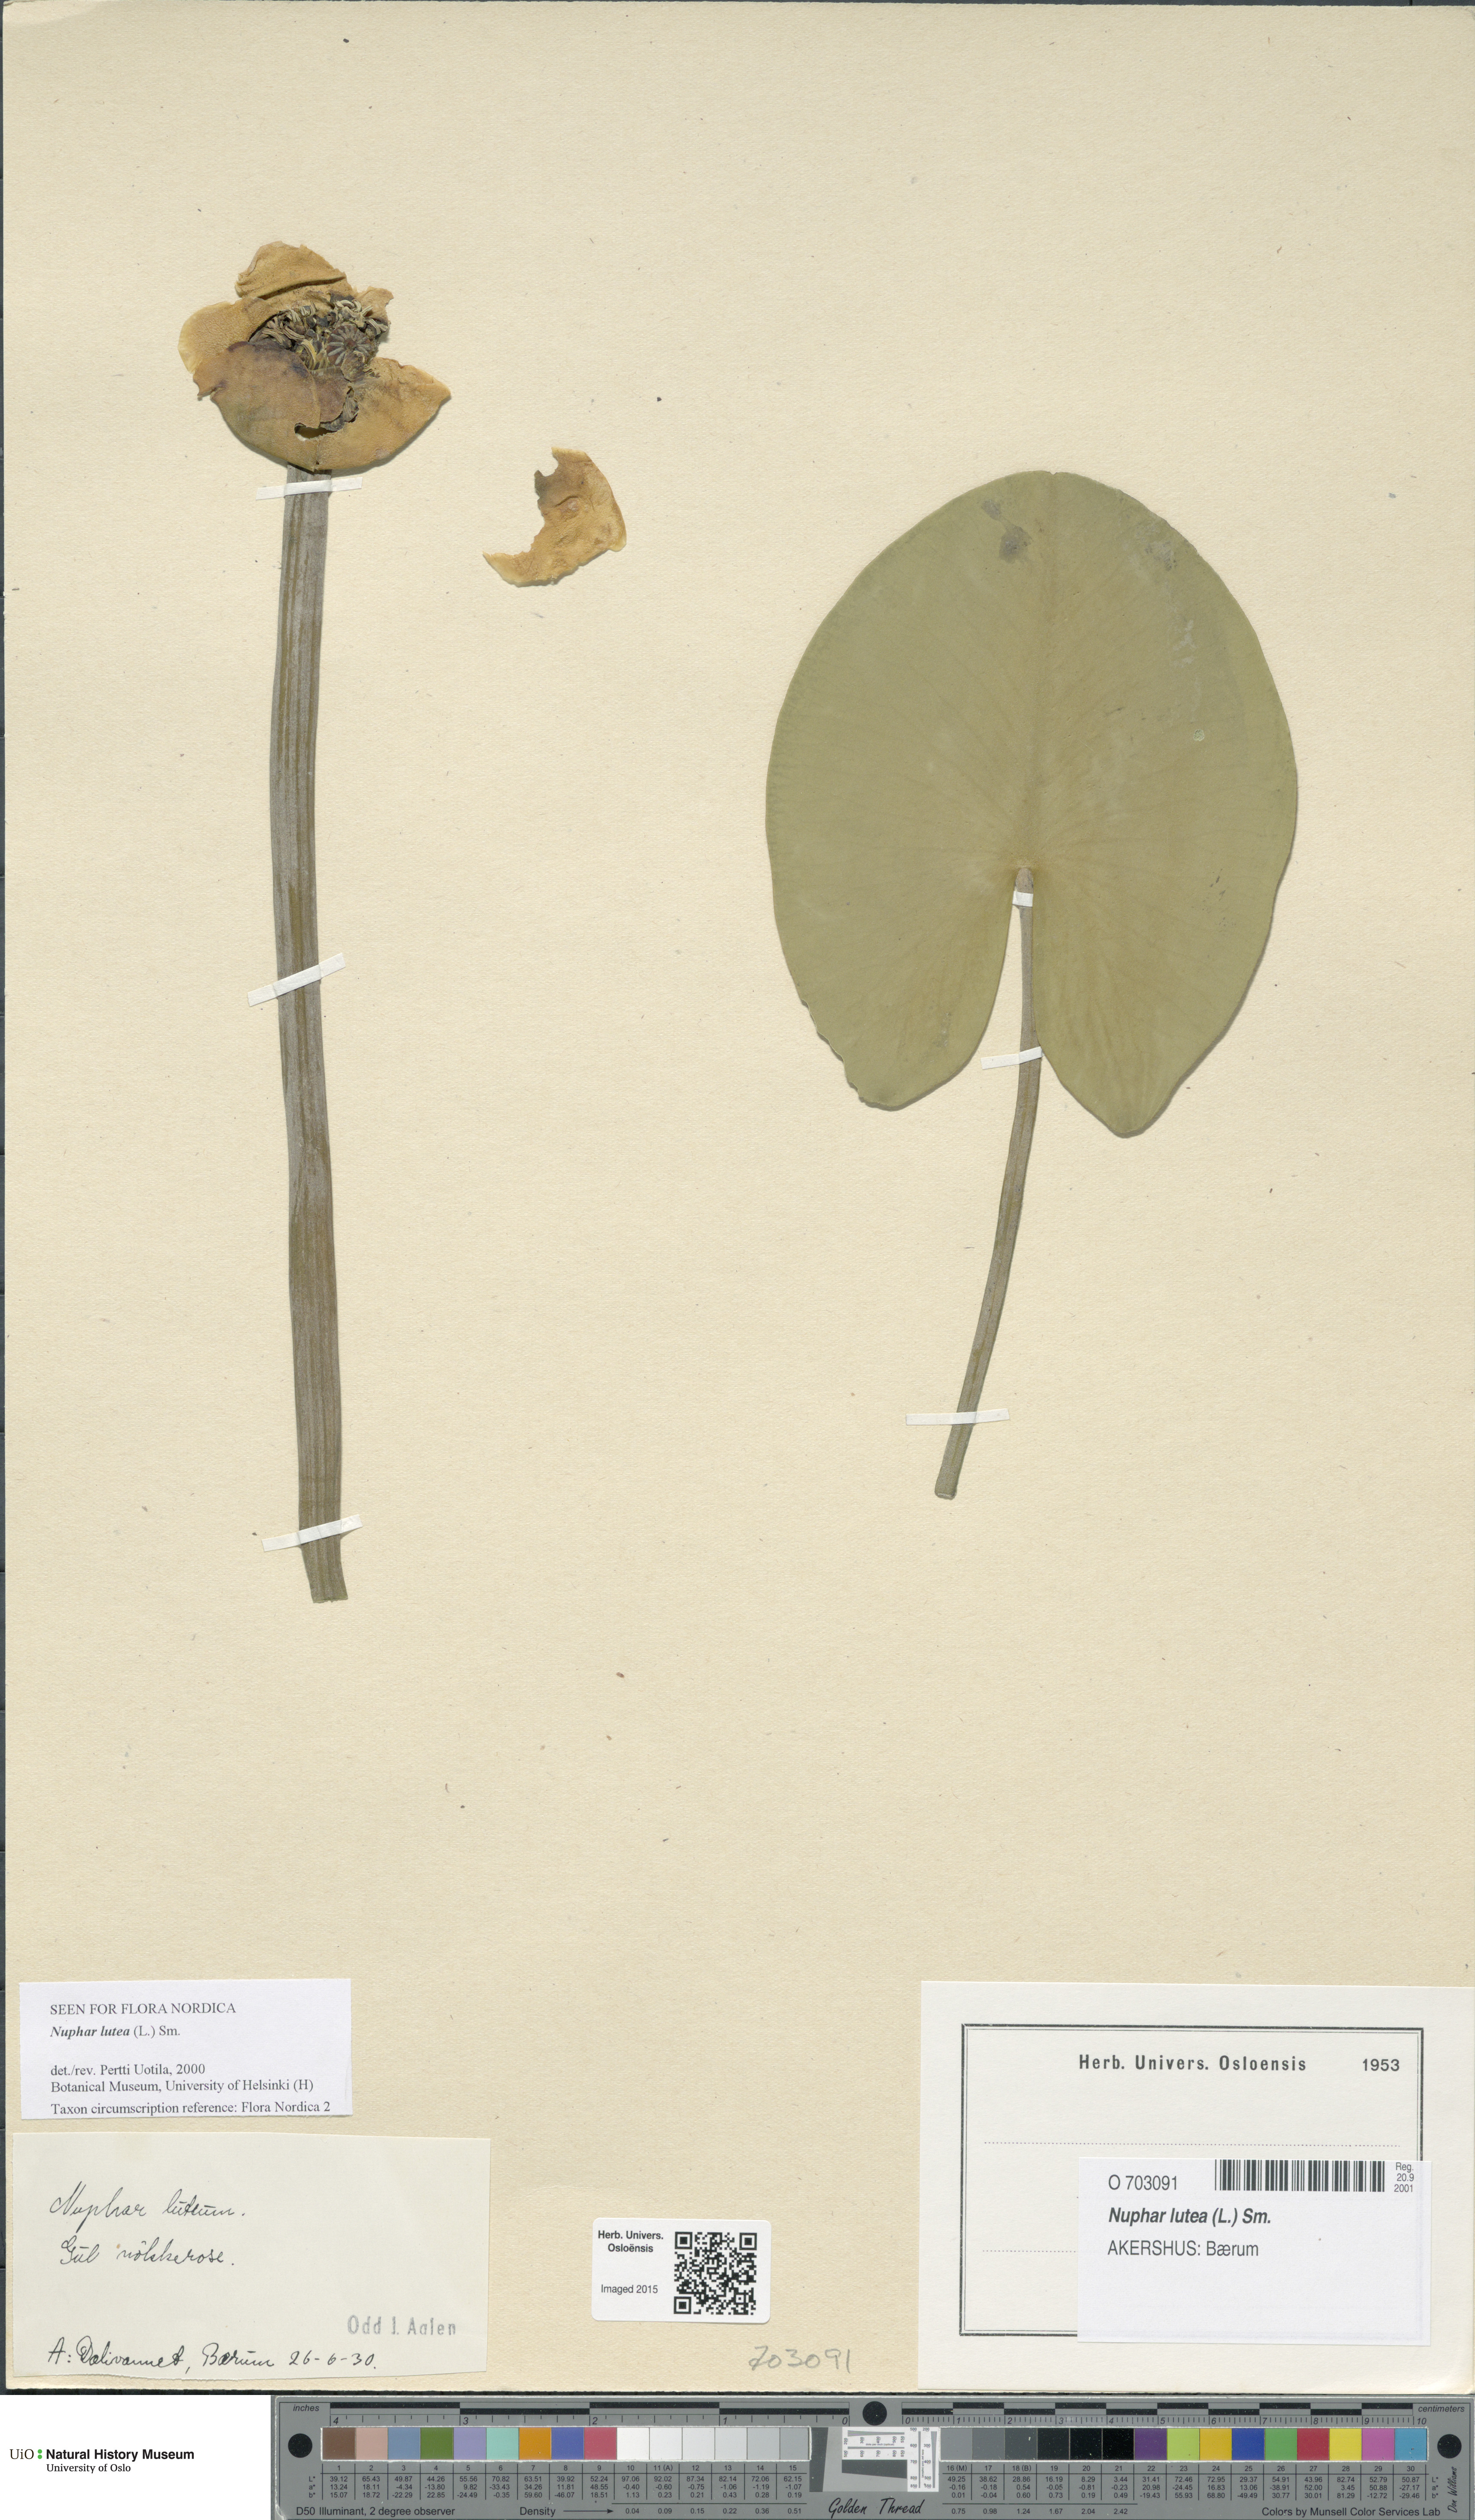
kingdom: Plantae
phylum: Tracheophyta
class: Magnoliopsida
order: Nymphaeales
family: Nymphaeaceae
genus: Nuphar
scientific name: Nuphar lutea
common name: Yellow water-lily
